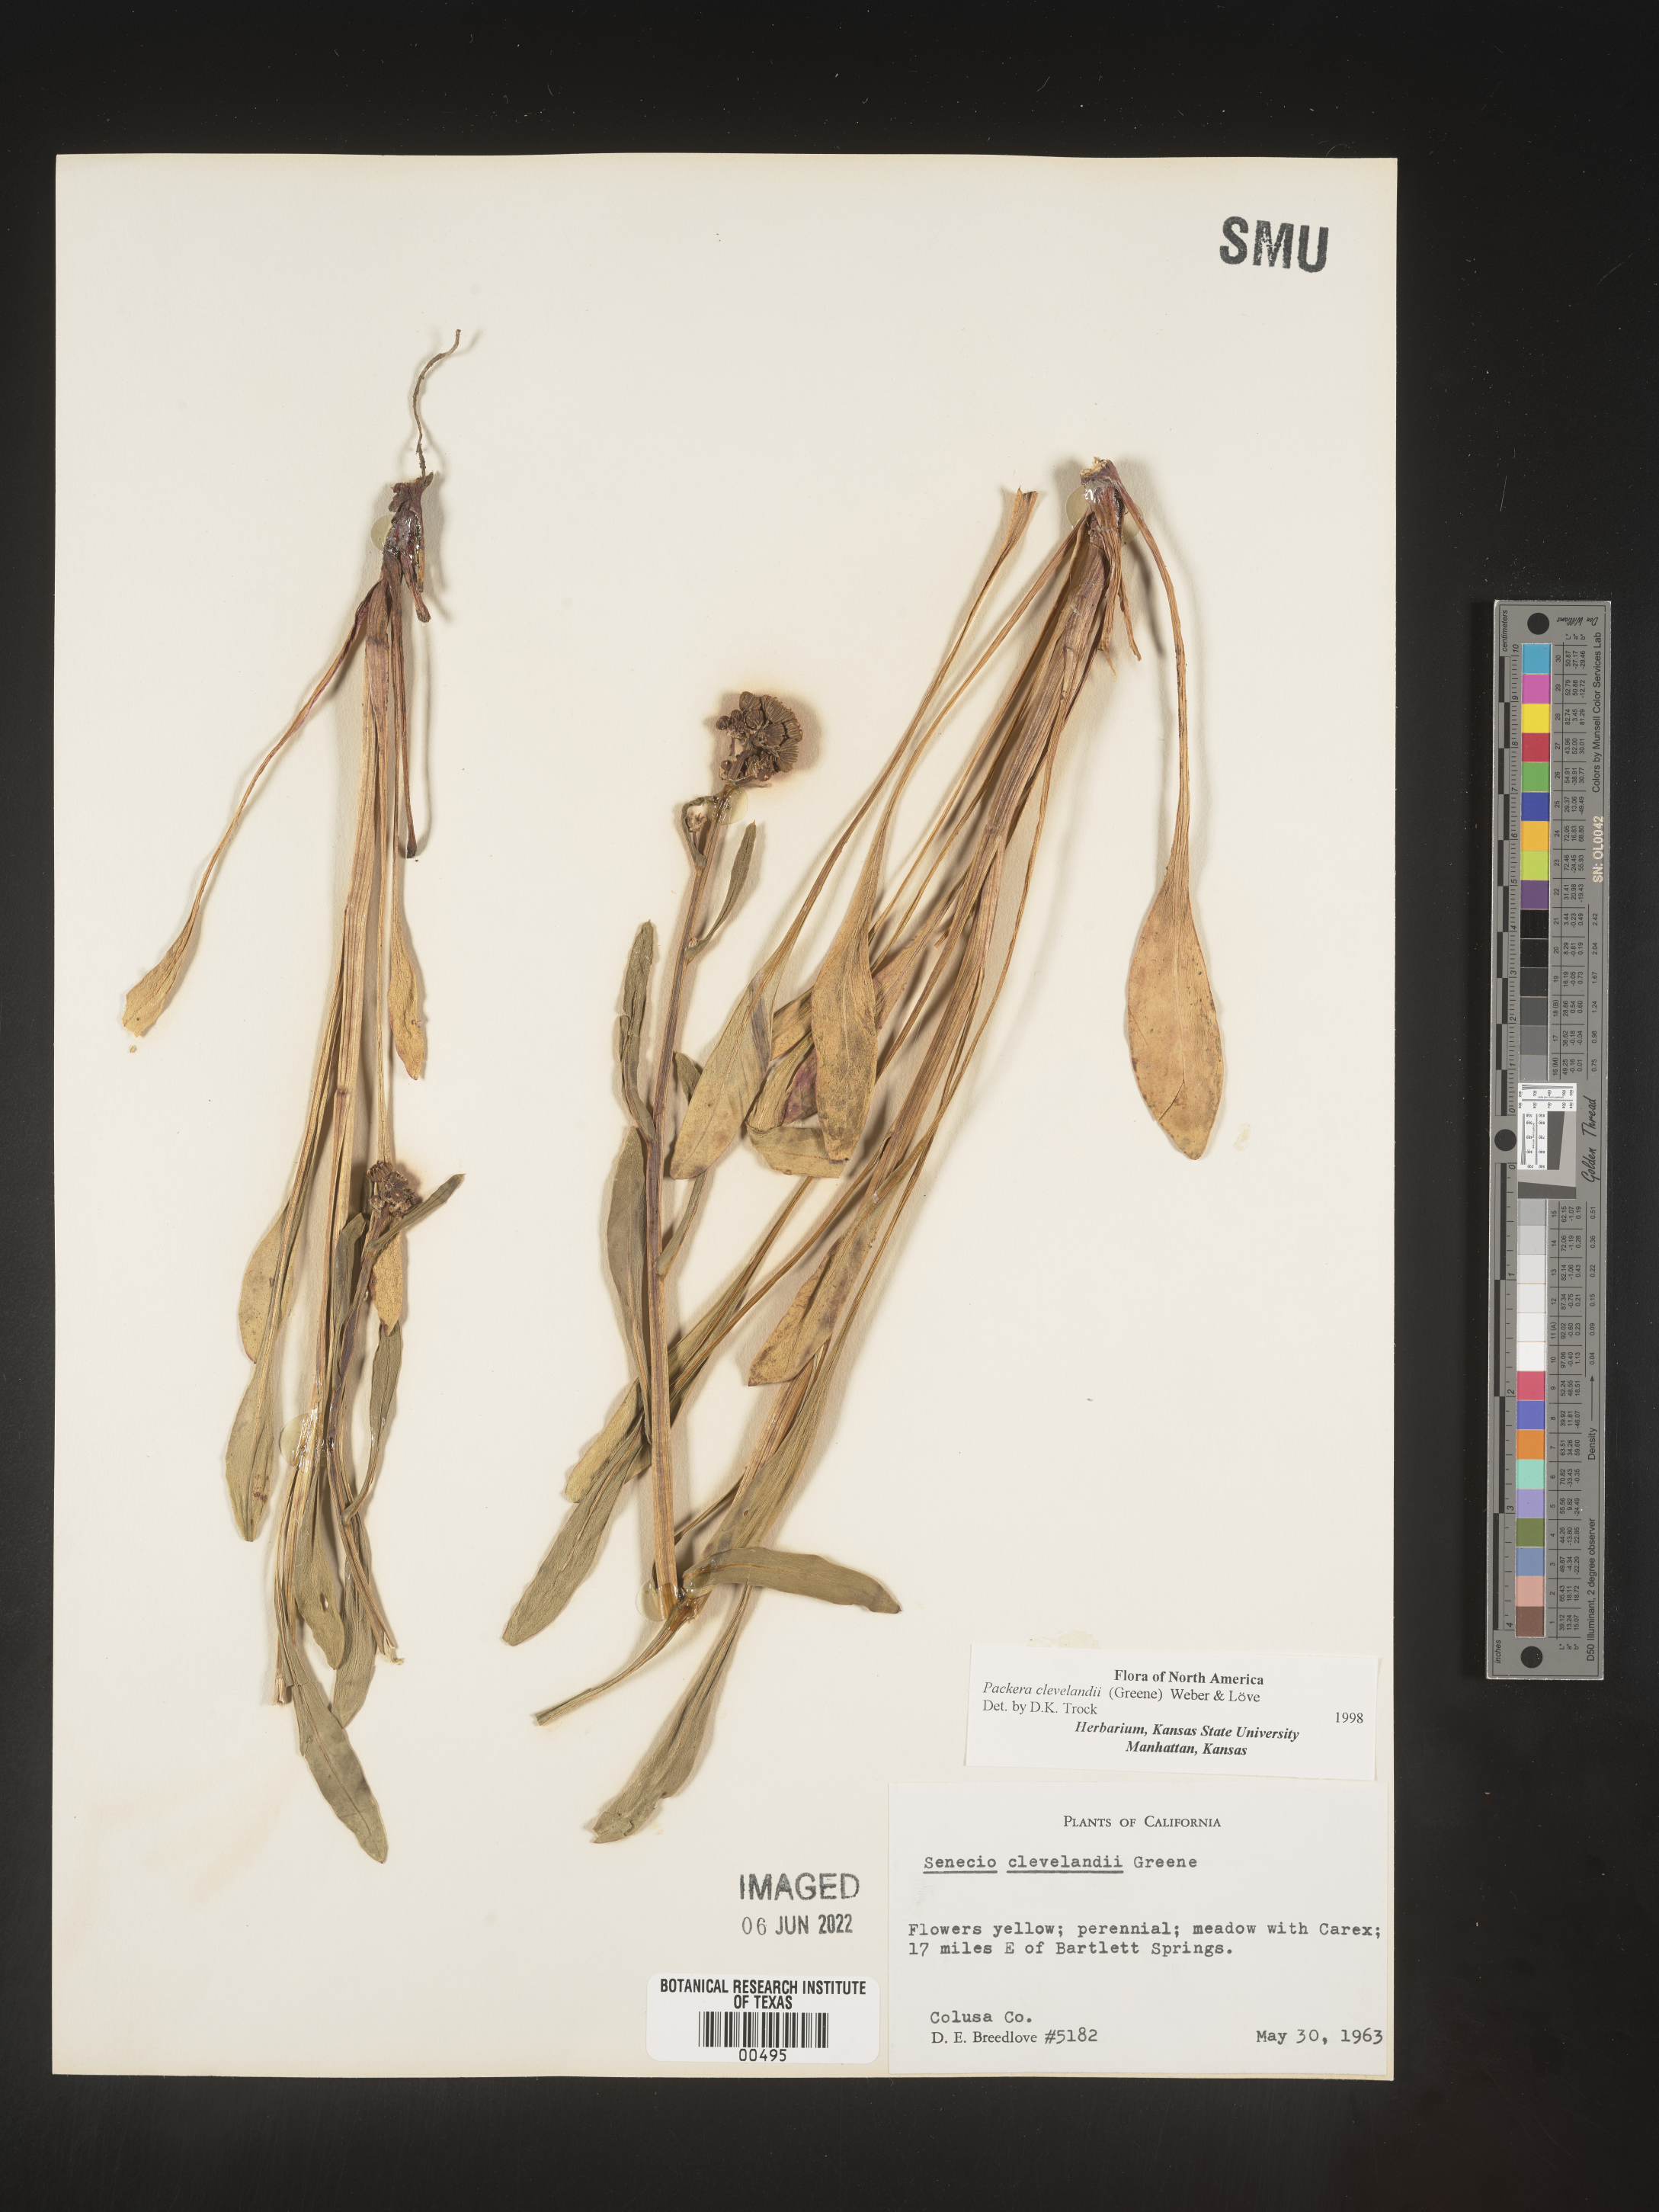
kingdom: Plantae
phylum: Tracheophyta
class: Magnoliopsida
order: Asterales
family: Asteraceae
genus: Packera
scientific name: Packera
